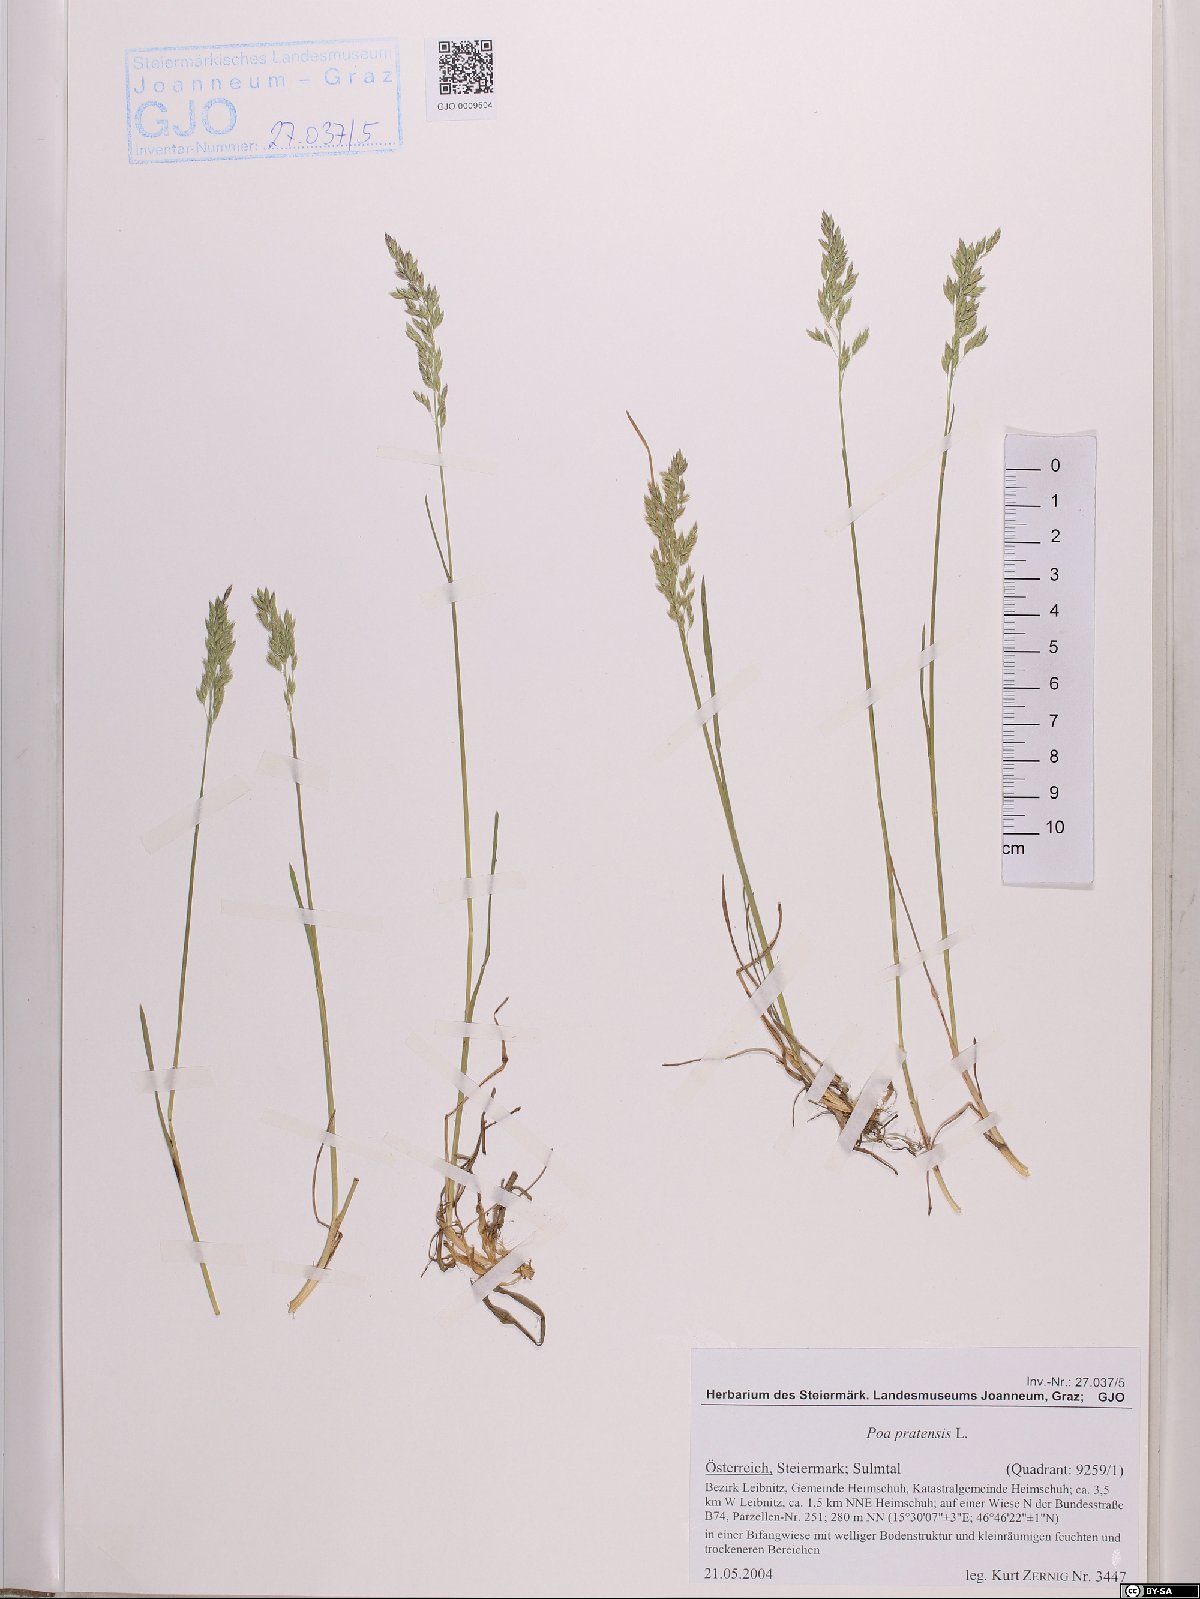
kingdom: Plantae
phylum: Tracheophyta
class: Liliopsida
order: Poales
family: Poaceae
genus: Poa
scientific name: Poa pratensis
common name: Kentucky bluegrass
